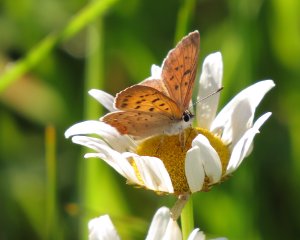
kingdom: Animalia
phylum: Arthropoda
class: Insecta
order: Lepidoptera
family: Sesiidae
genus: Sesia
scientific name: Sesia Lycaena helloides
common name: Purplish Copper
